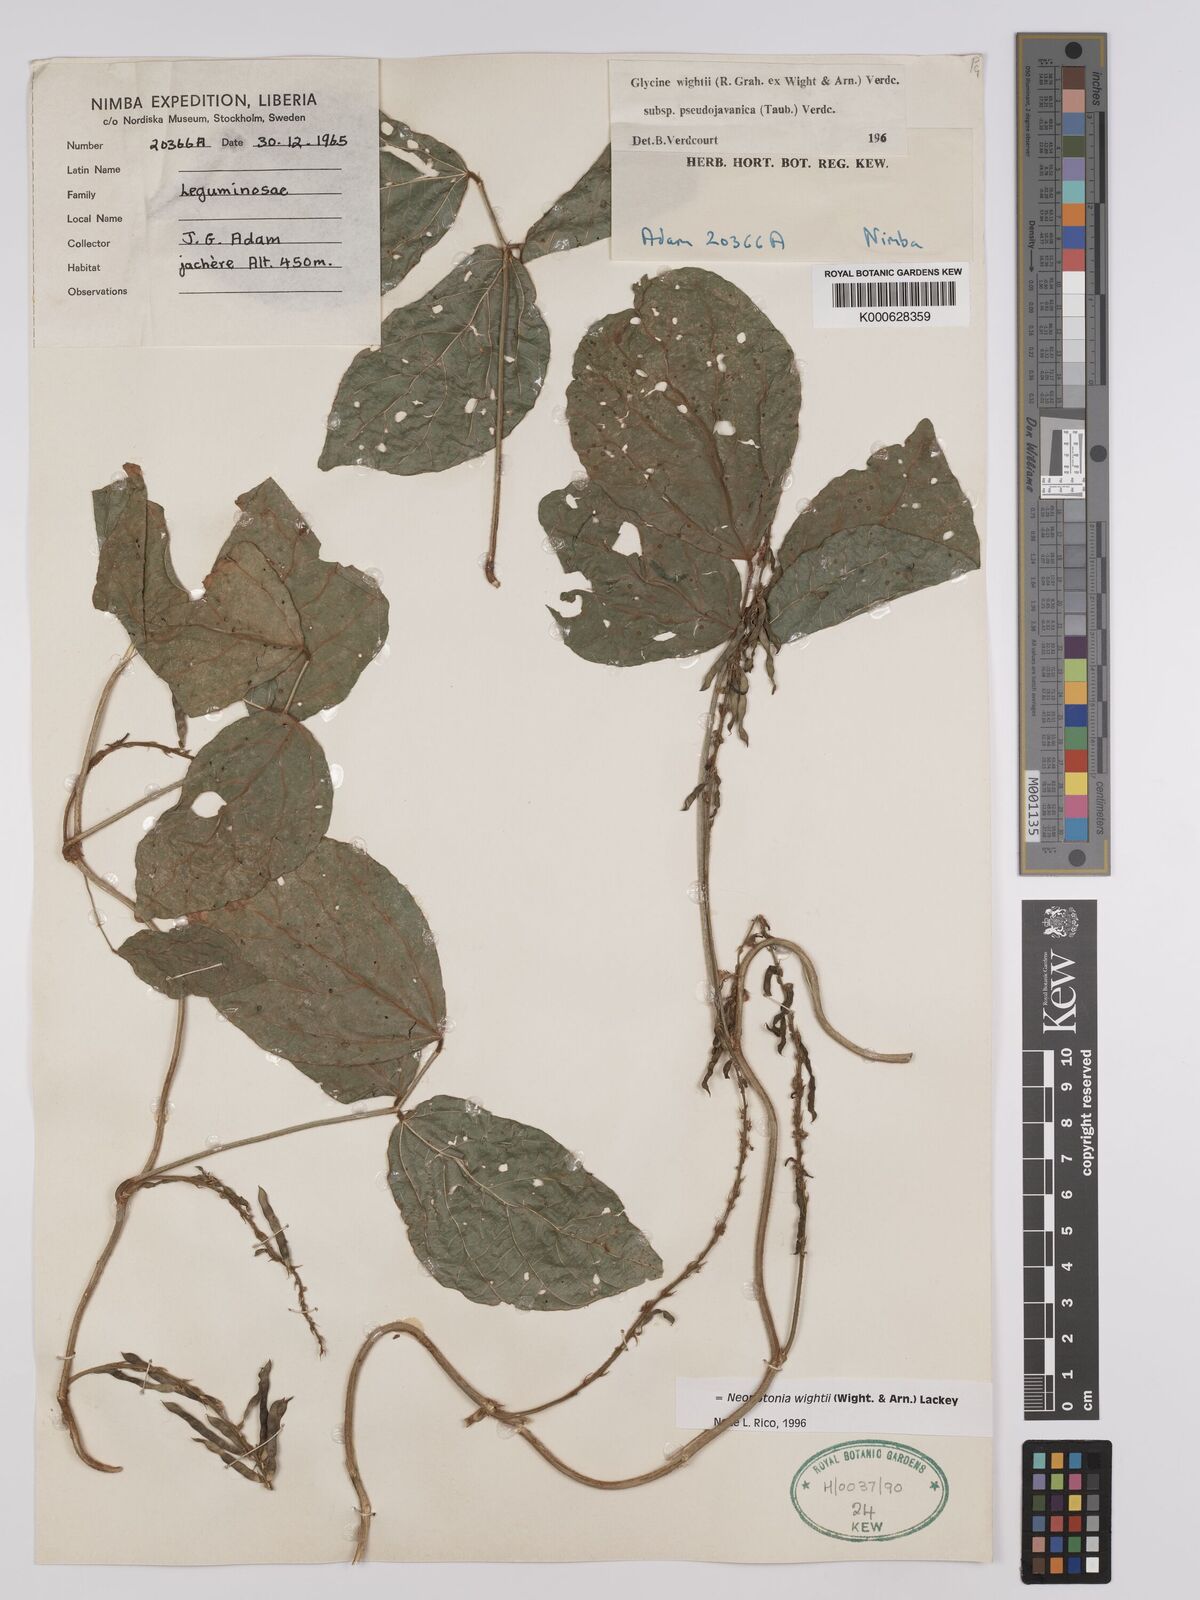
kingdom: Plantae
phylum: Tracheophyta
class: Magnoliopsida
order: Fabales
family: Fabaceae
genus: Neonotonia
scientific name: Neonotonia wightii
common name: Perennial soybean
